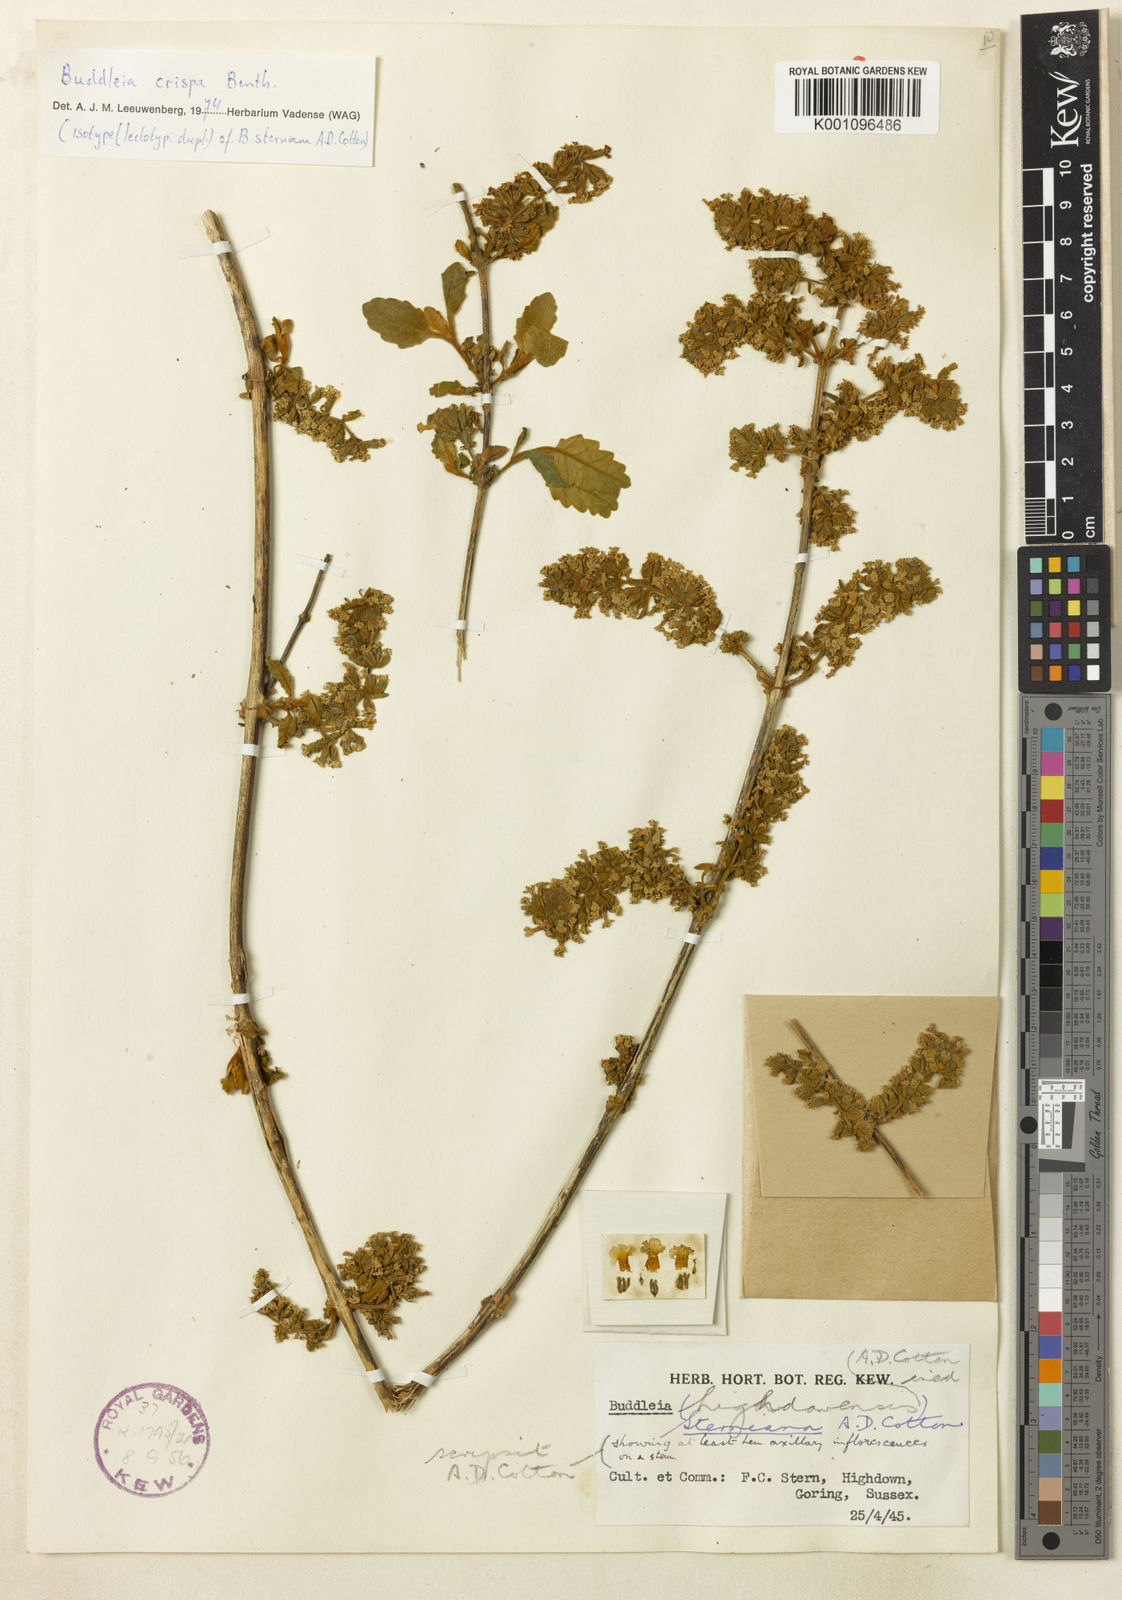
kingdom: Plantae
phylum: Tracheophyta
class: Magnoliopsida
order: Lamiales
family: Scrophulariaceae
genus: Buddleja
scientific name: Buddleja crispa
